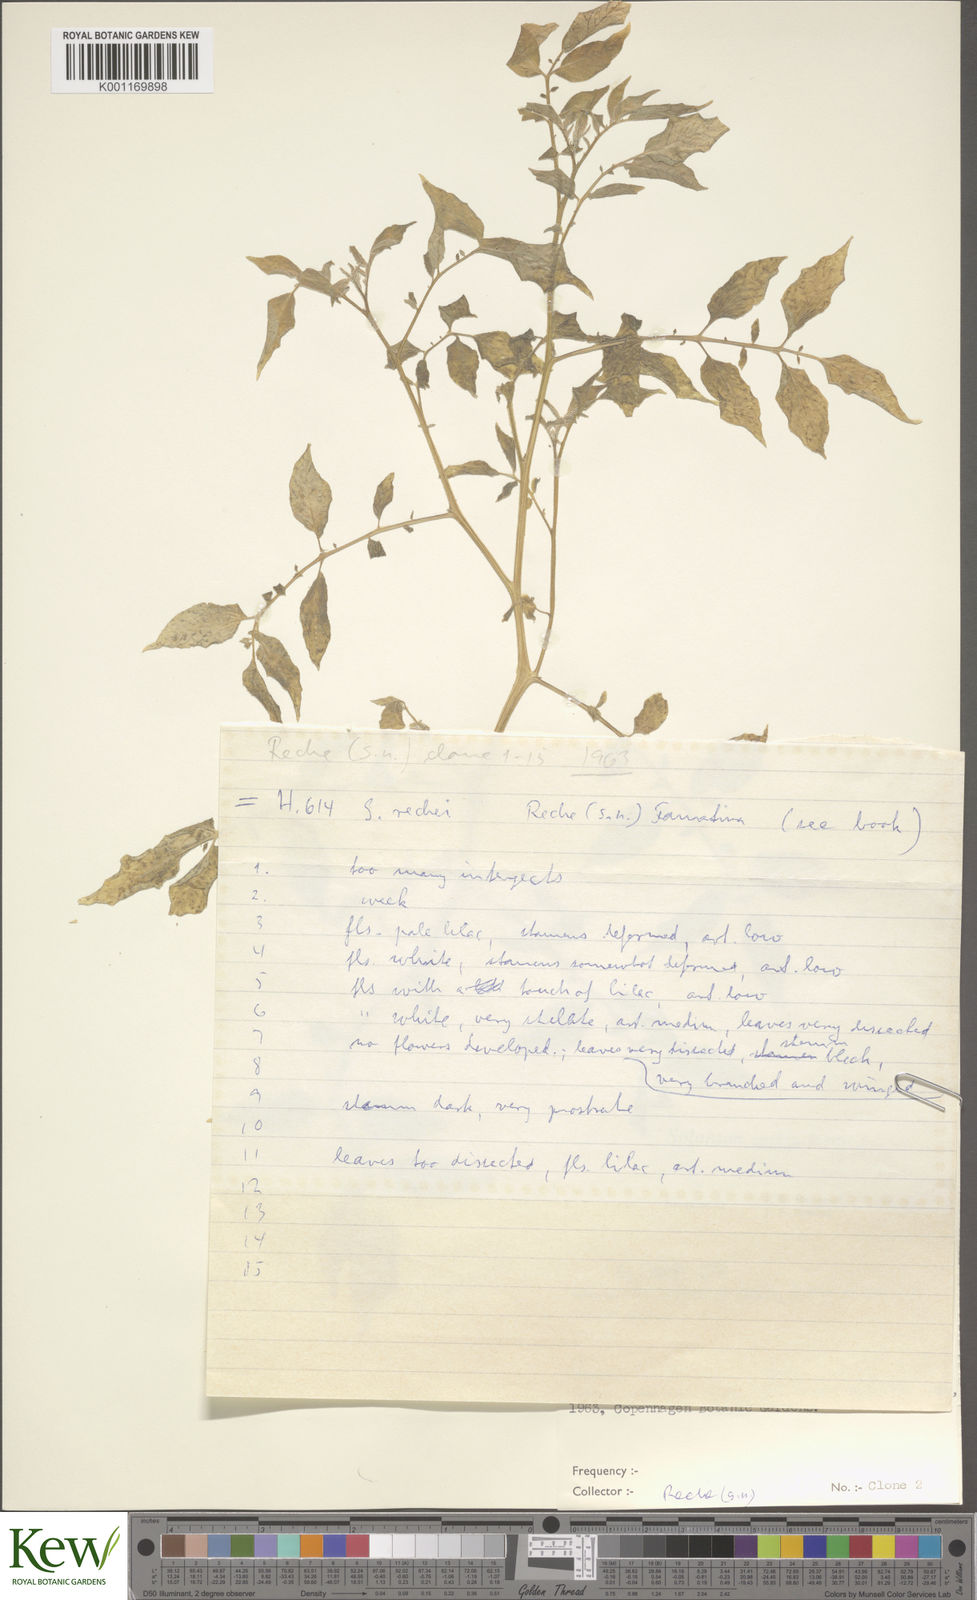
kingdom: Plantae
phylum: Tracheophyta
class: Magnoliopsida
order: Solanales
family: Solanaceae
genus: Solanum
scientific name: Solanum rechei
